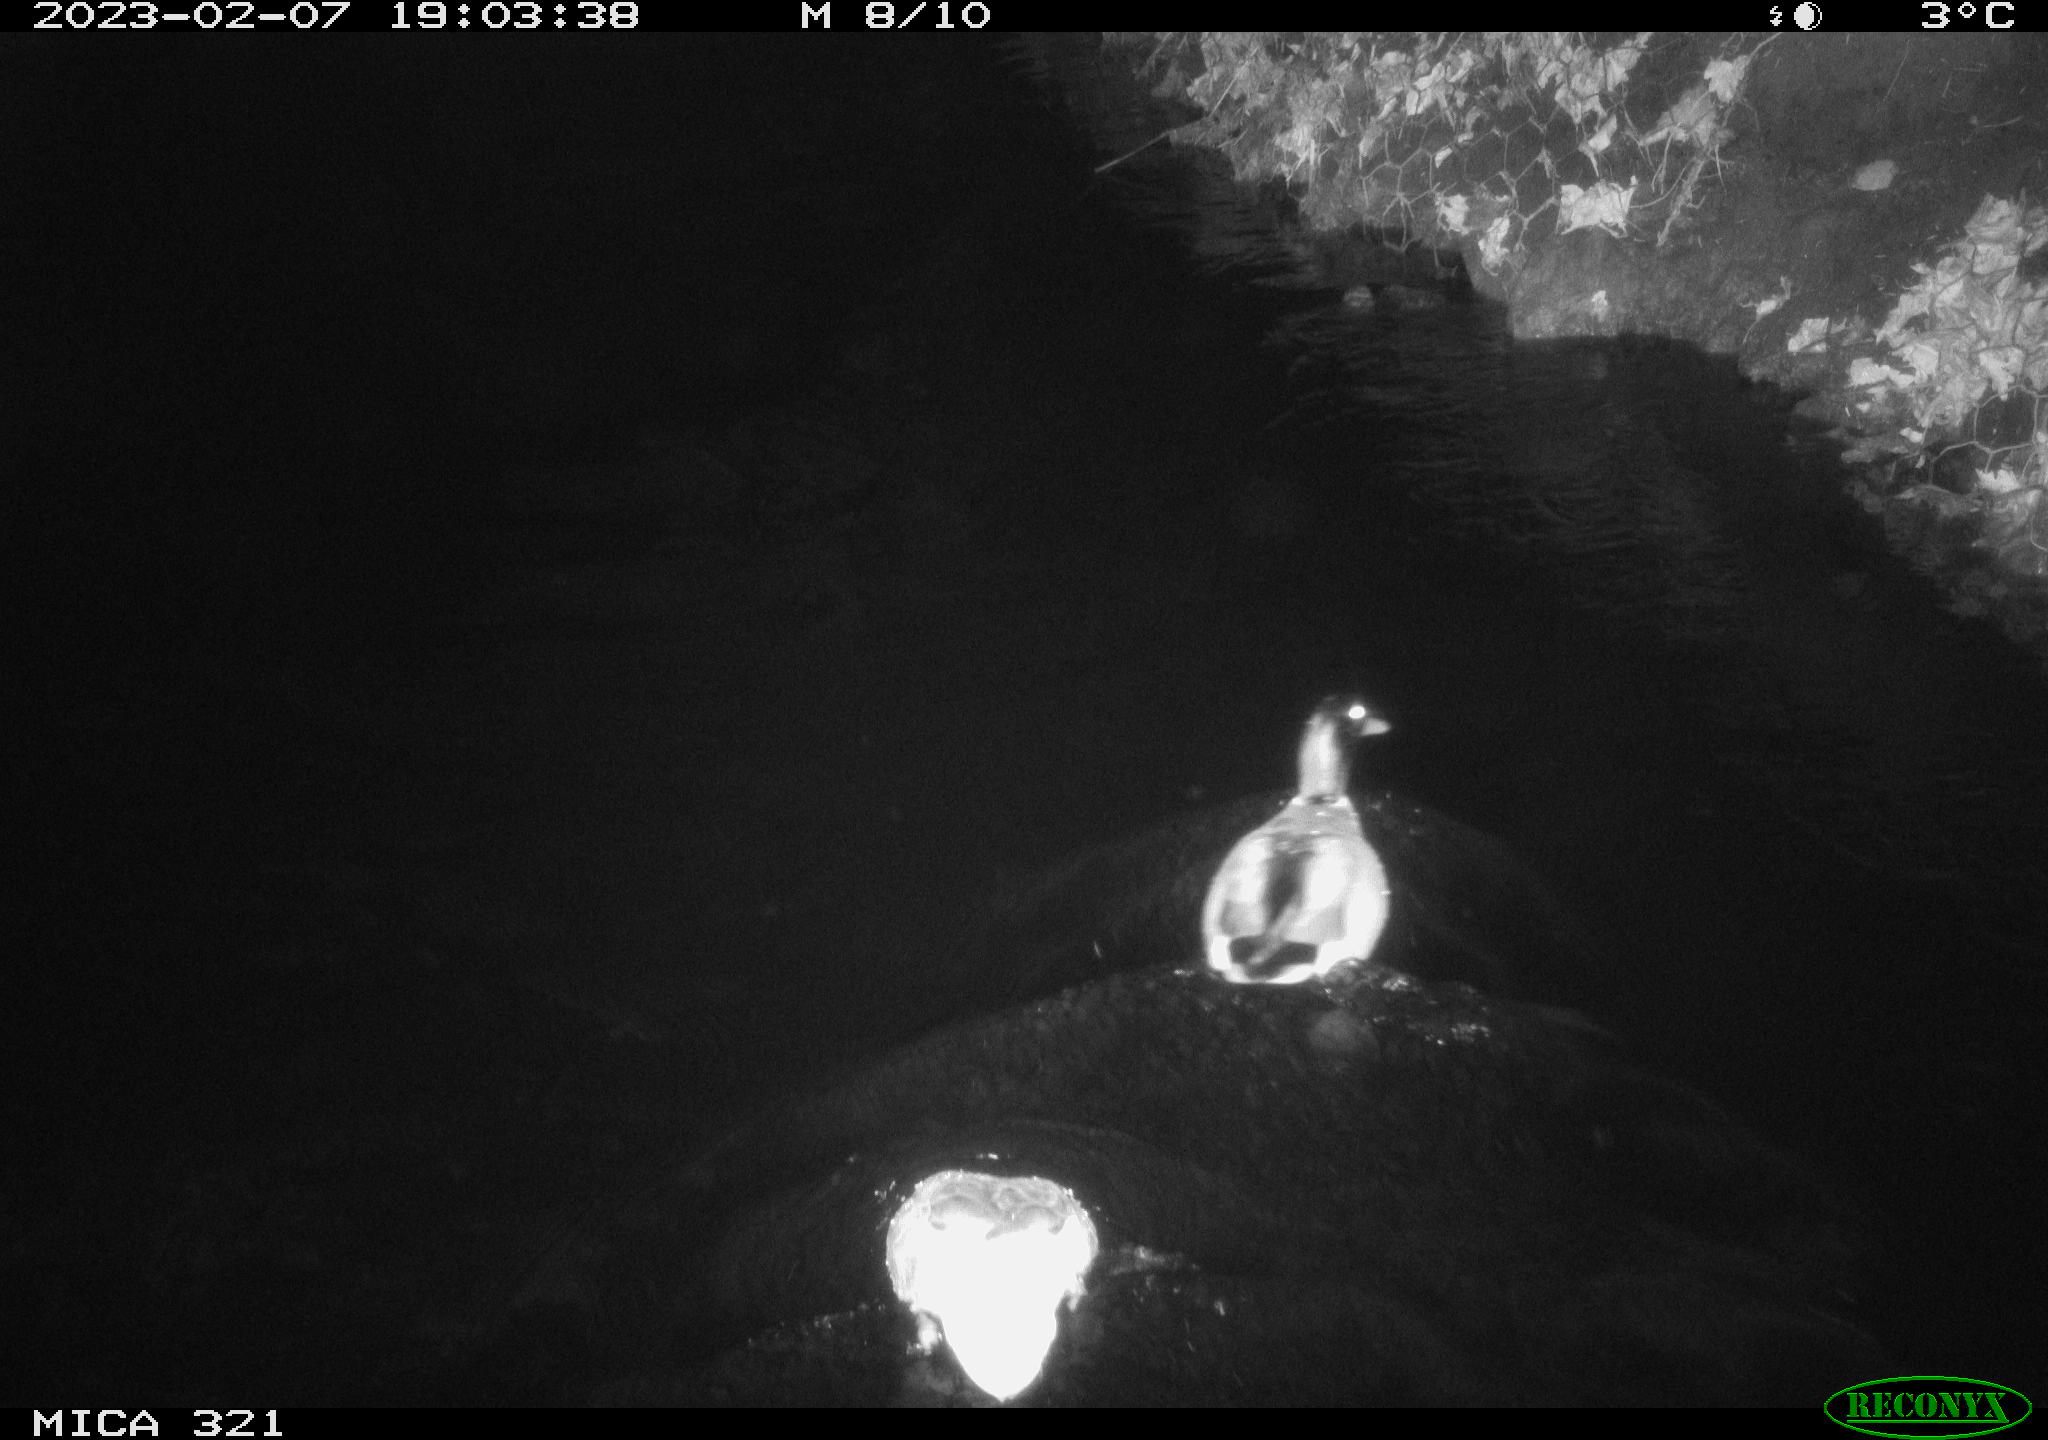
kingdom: Animalia
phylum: Chordata
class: Aves
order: Anseriformes
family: Anatidae
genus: Anas
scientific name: Anas
